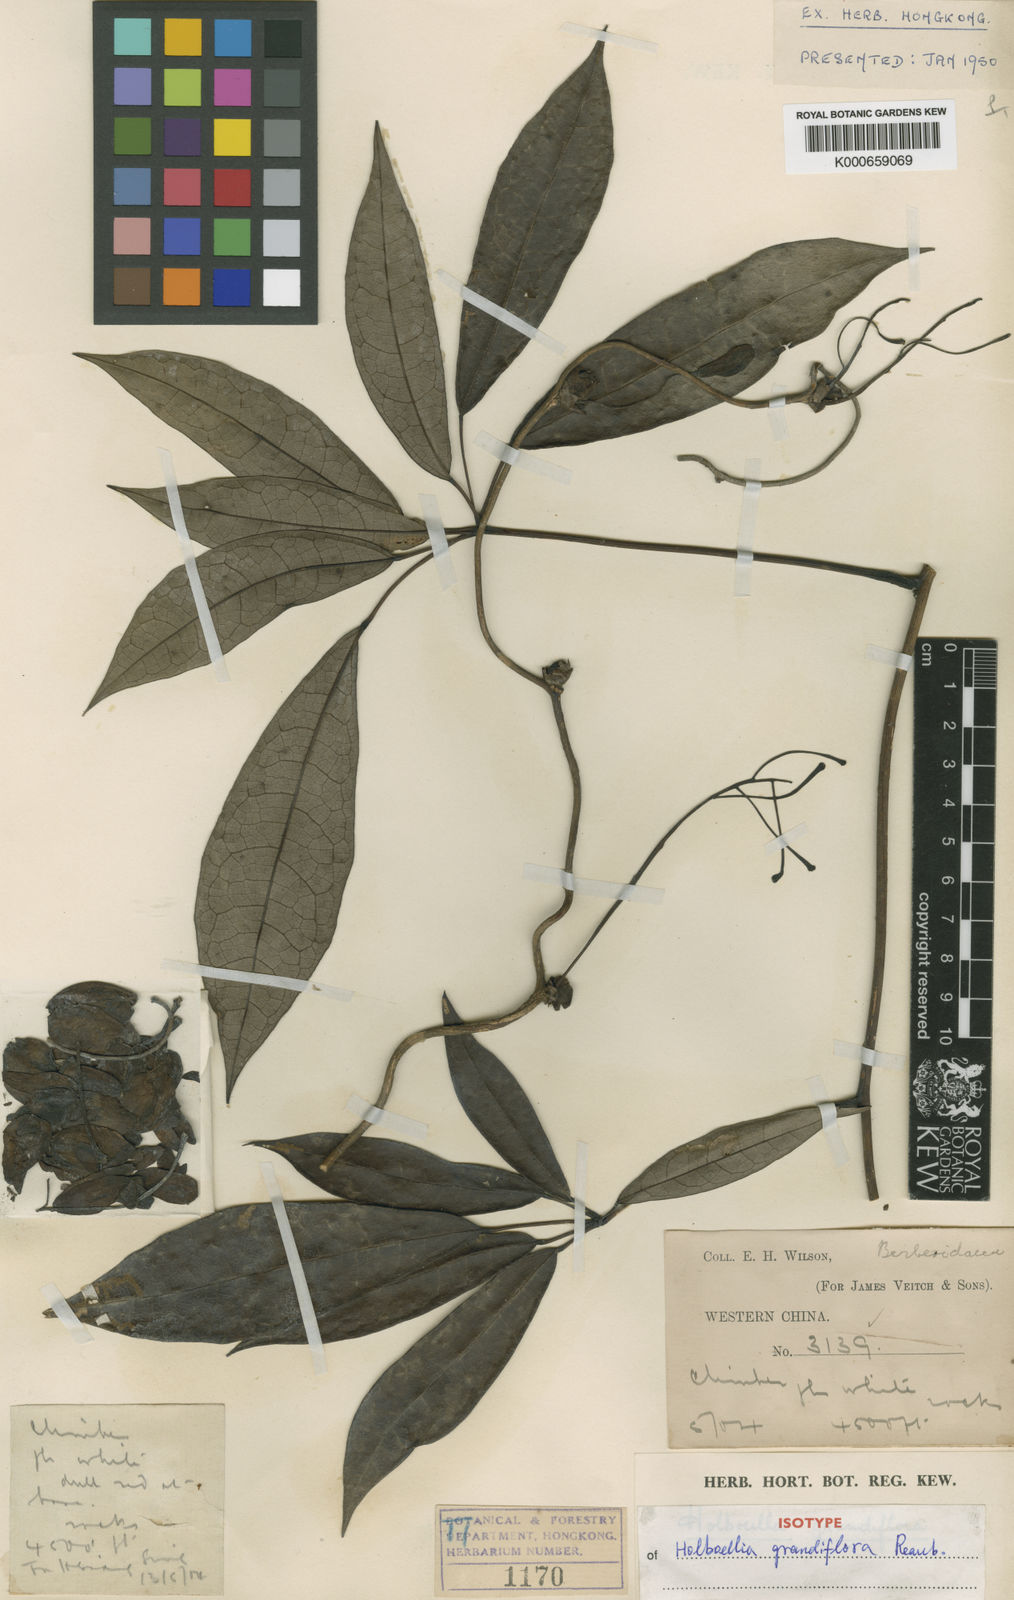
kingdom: Plantae
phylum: Tracheophyta
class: Magnoliopsida
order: Ranunculales
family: Lardizabalaceae
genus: Stauntonia
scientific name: Stauntonia grandiflora
